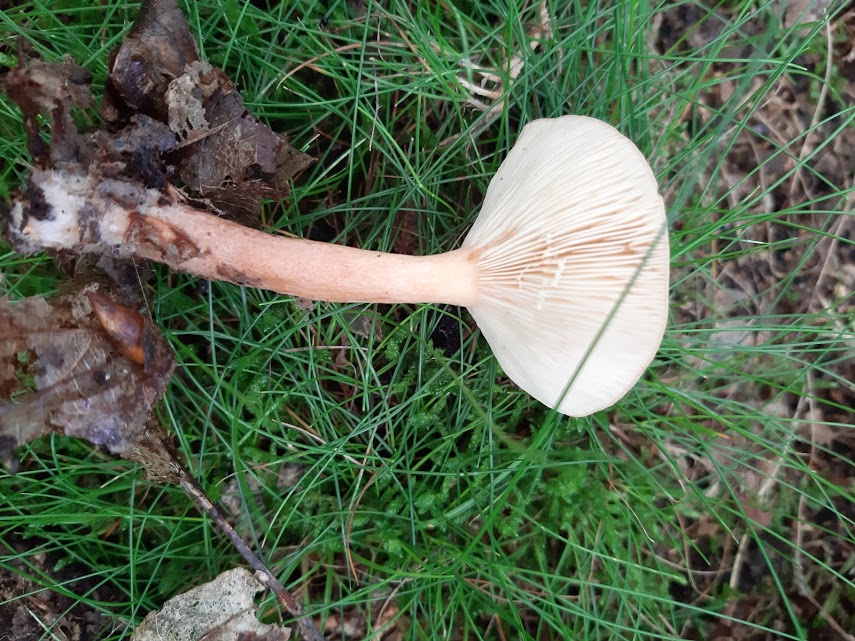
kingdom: Fungi
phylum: Basidiomycota
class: Agaricomycetes
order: Russulales
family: Russulaceae
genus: Lactarius
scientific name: Lactarius
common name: mælkehat
